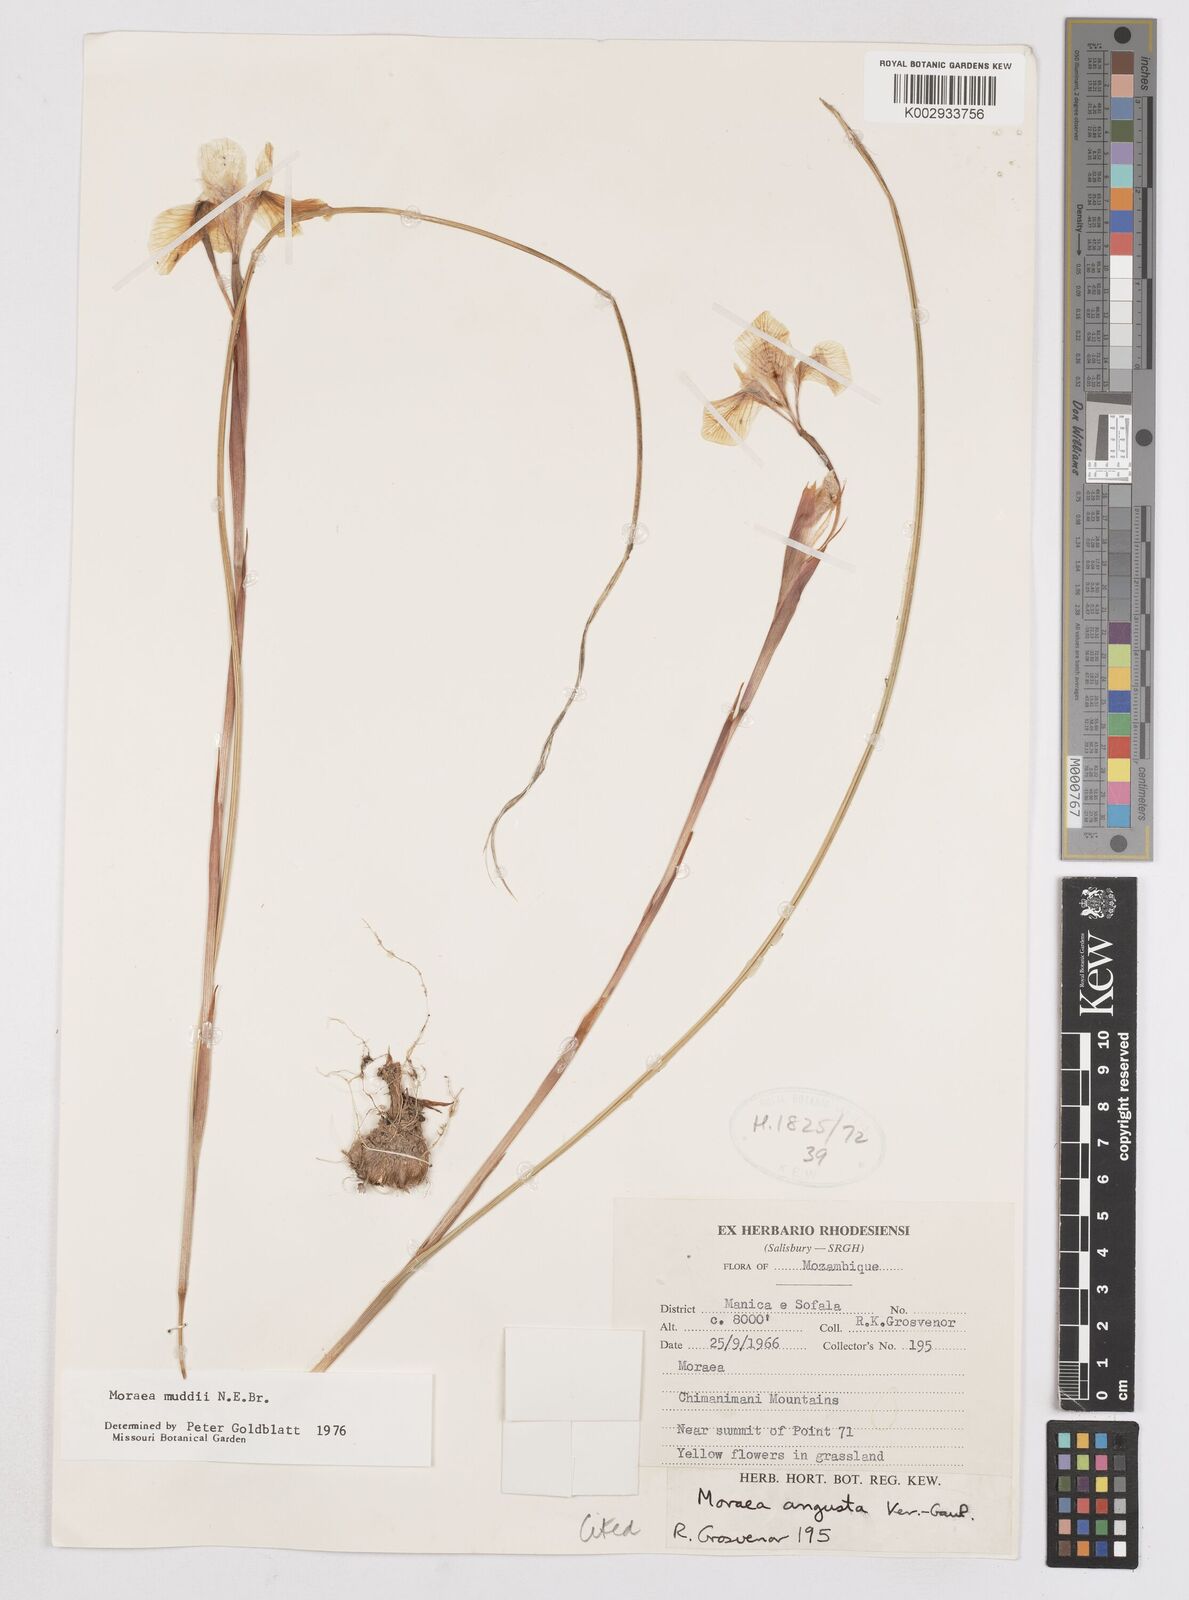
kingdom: Plantae
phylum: Tracheophyta
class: Liliopsida
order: Asparagales
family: Iridaceae
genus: Moraea
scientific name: Moraea muddii
